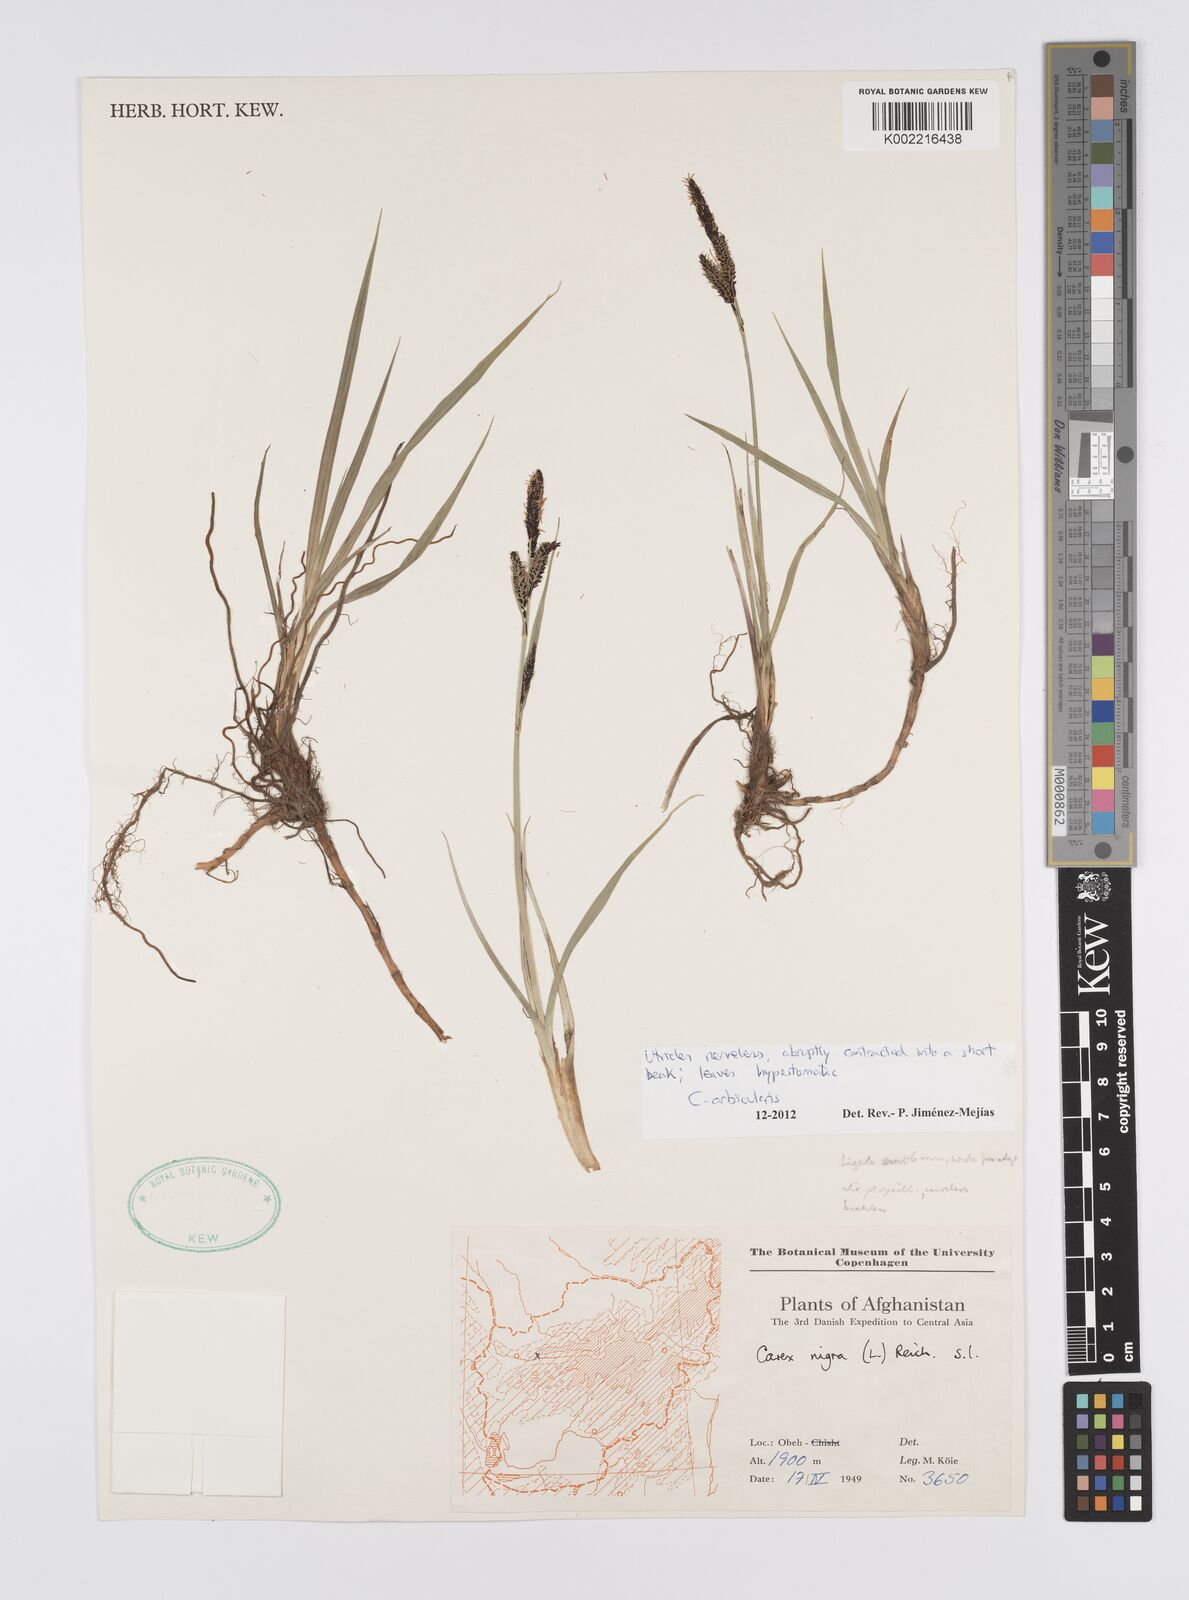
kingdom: Plantae
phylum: Tracheophyta
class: Liliopsida
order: Poales
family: Cyperaceae
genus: Carex
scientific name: Carex orbicularis
